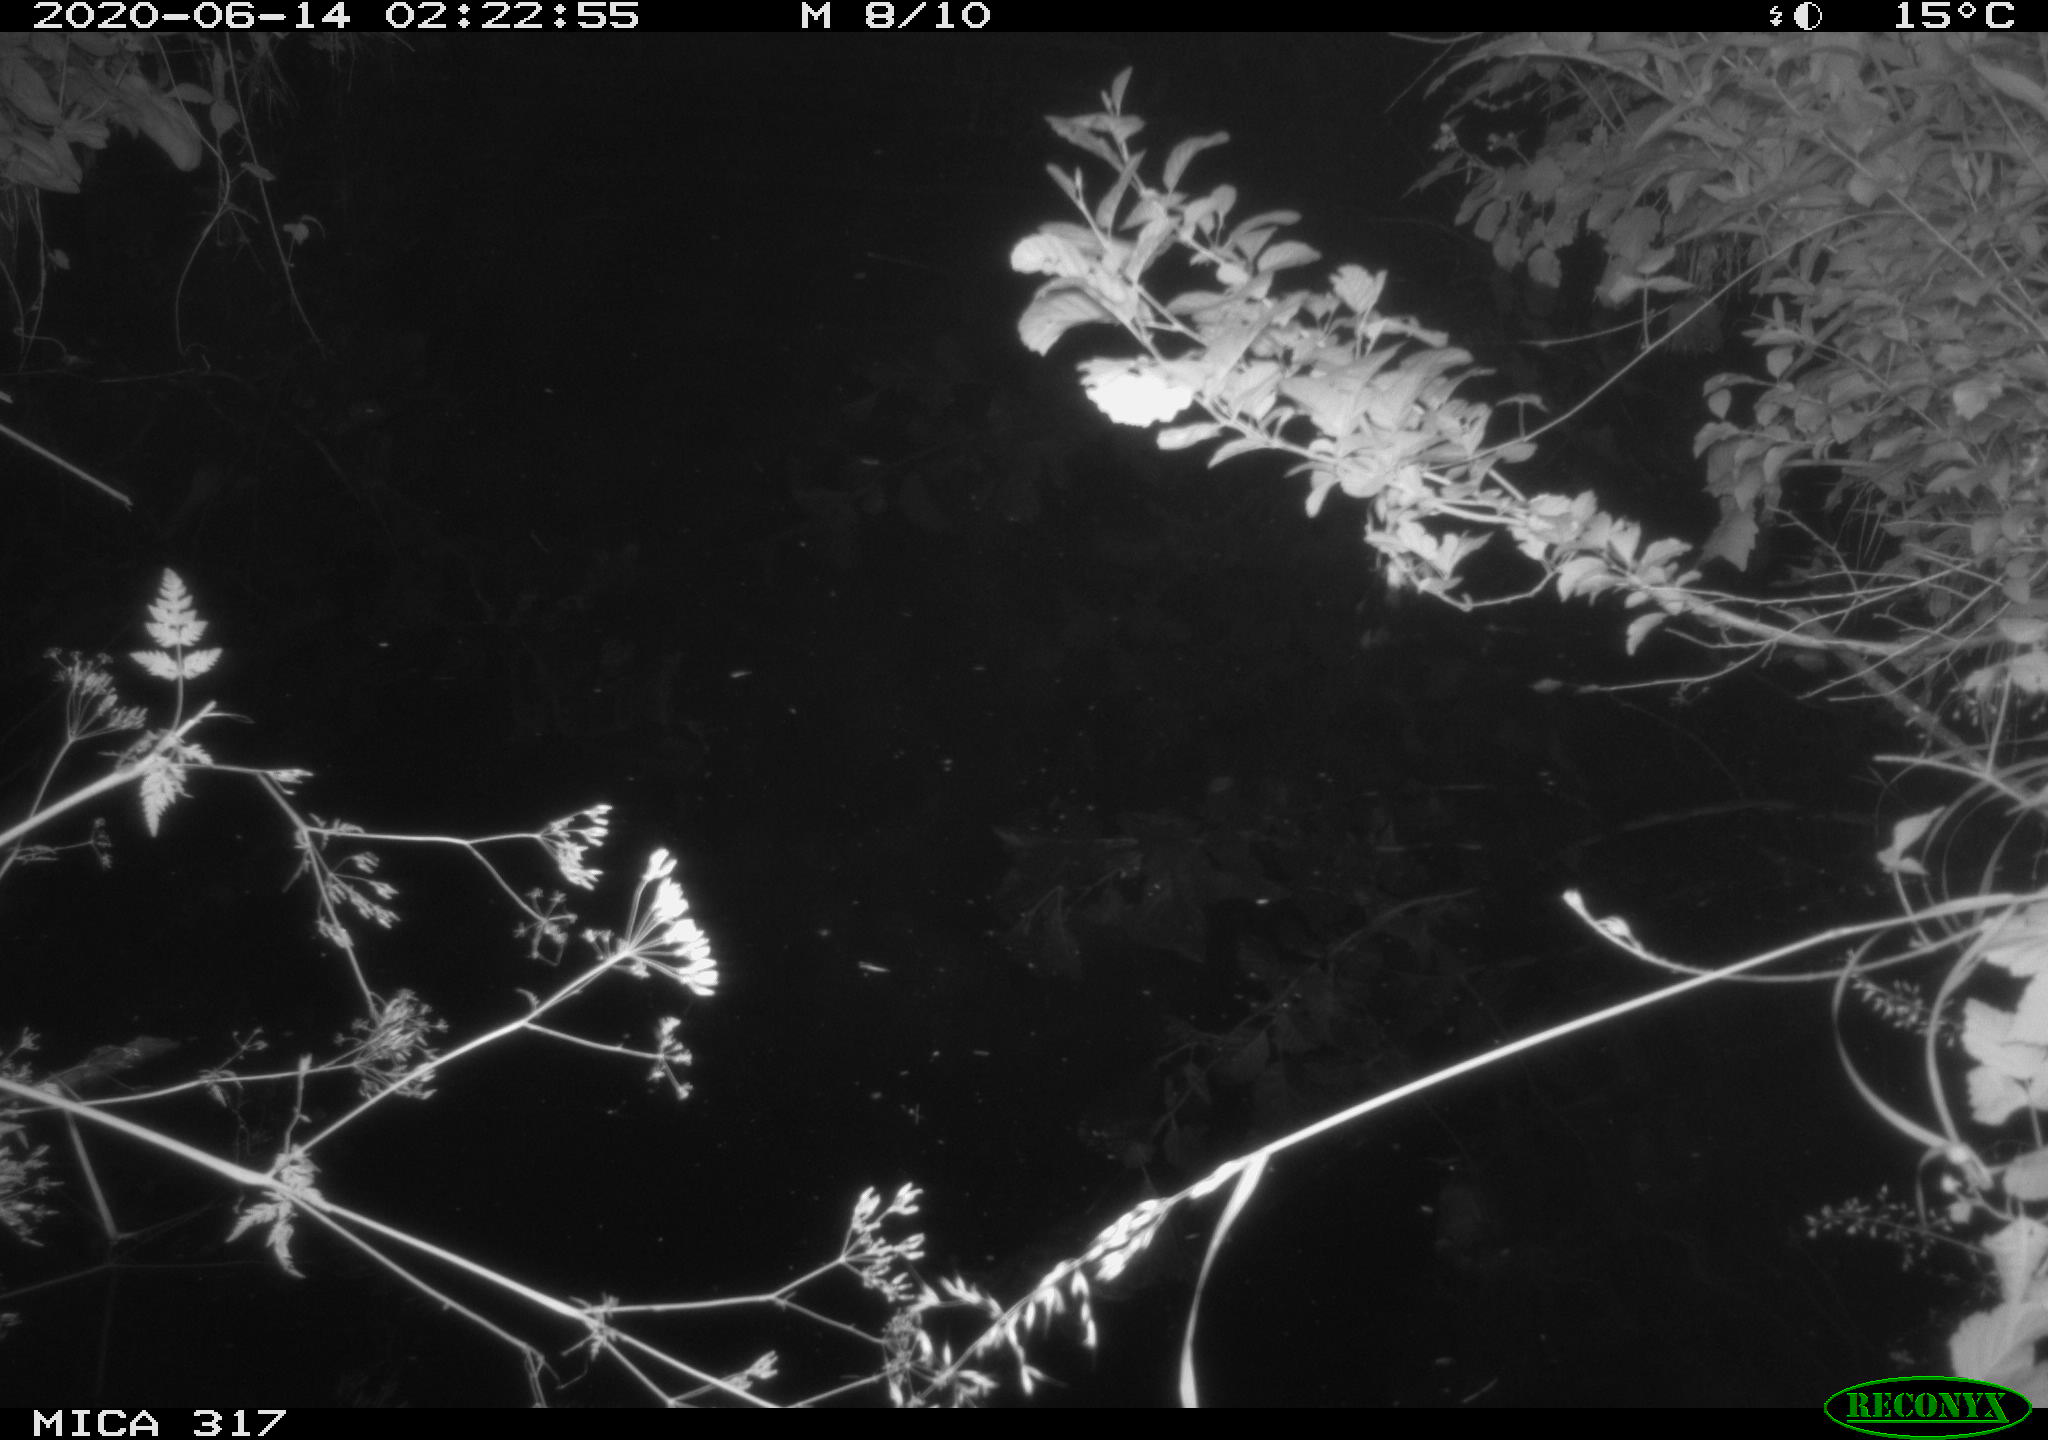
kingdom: Animalia
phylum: Chordata
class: Aves
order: Anseriformes
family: Anatidae
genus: Anas
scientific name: Anas platyrhynchos
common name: Mallard
